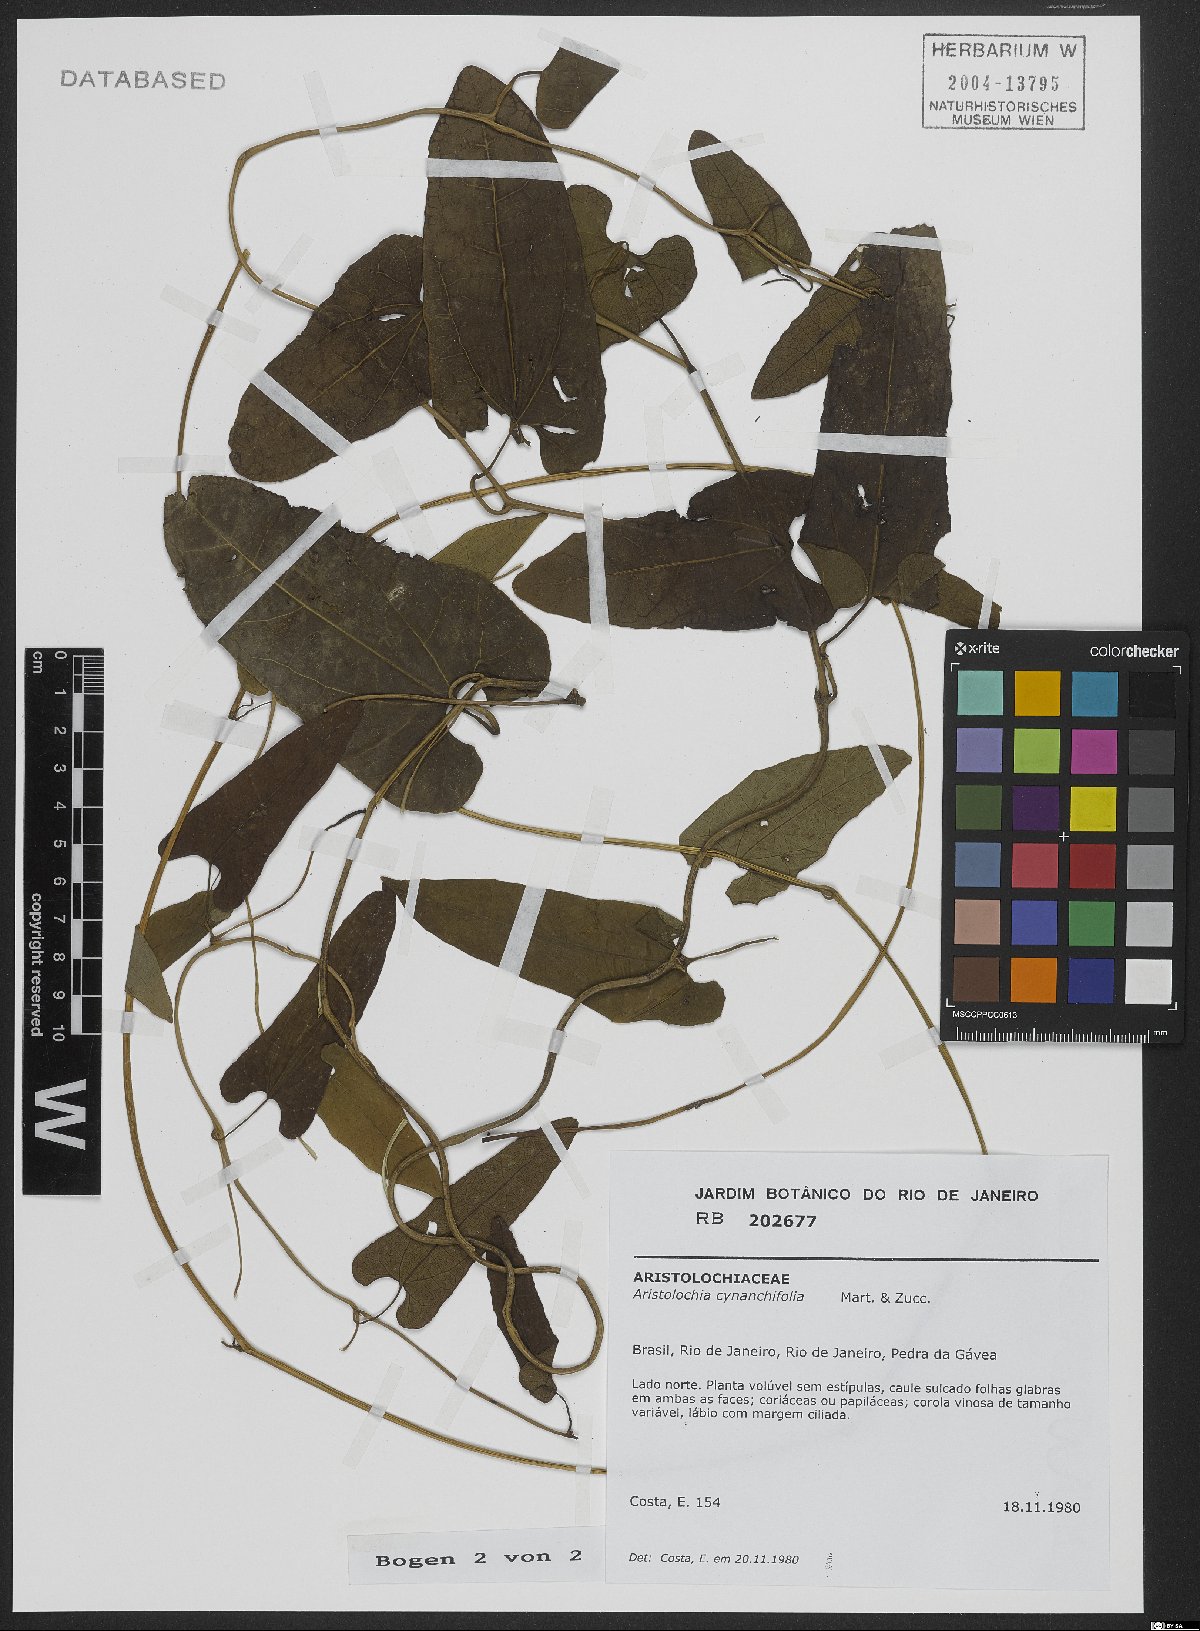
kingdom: Plantae
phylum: Tracheophyta
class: Magnoliopsida
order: Piperales
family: Aristolochiaceae
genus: Aristolochia
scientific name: Aristolochia cynanchifolia
